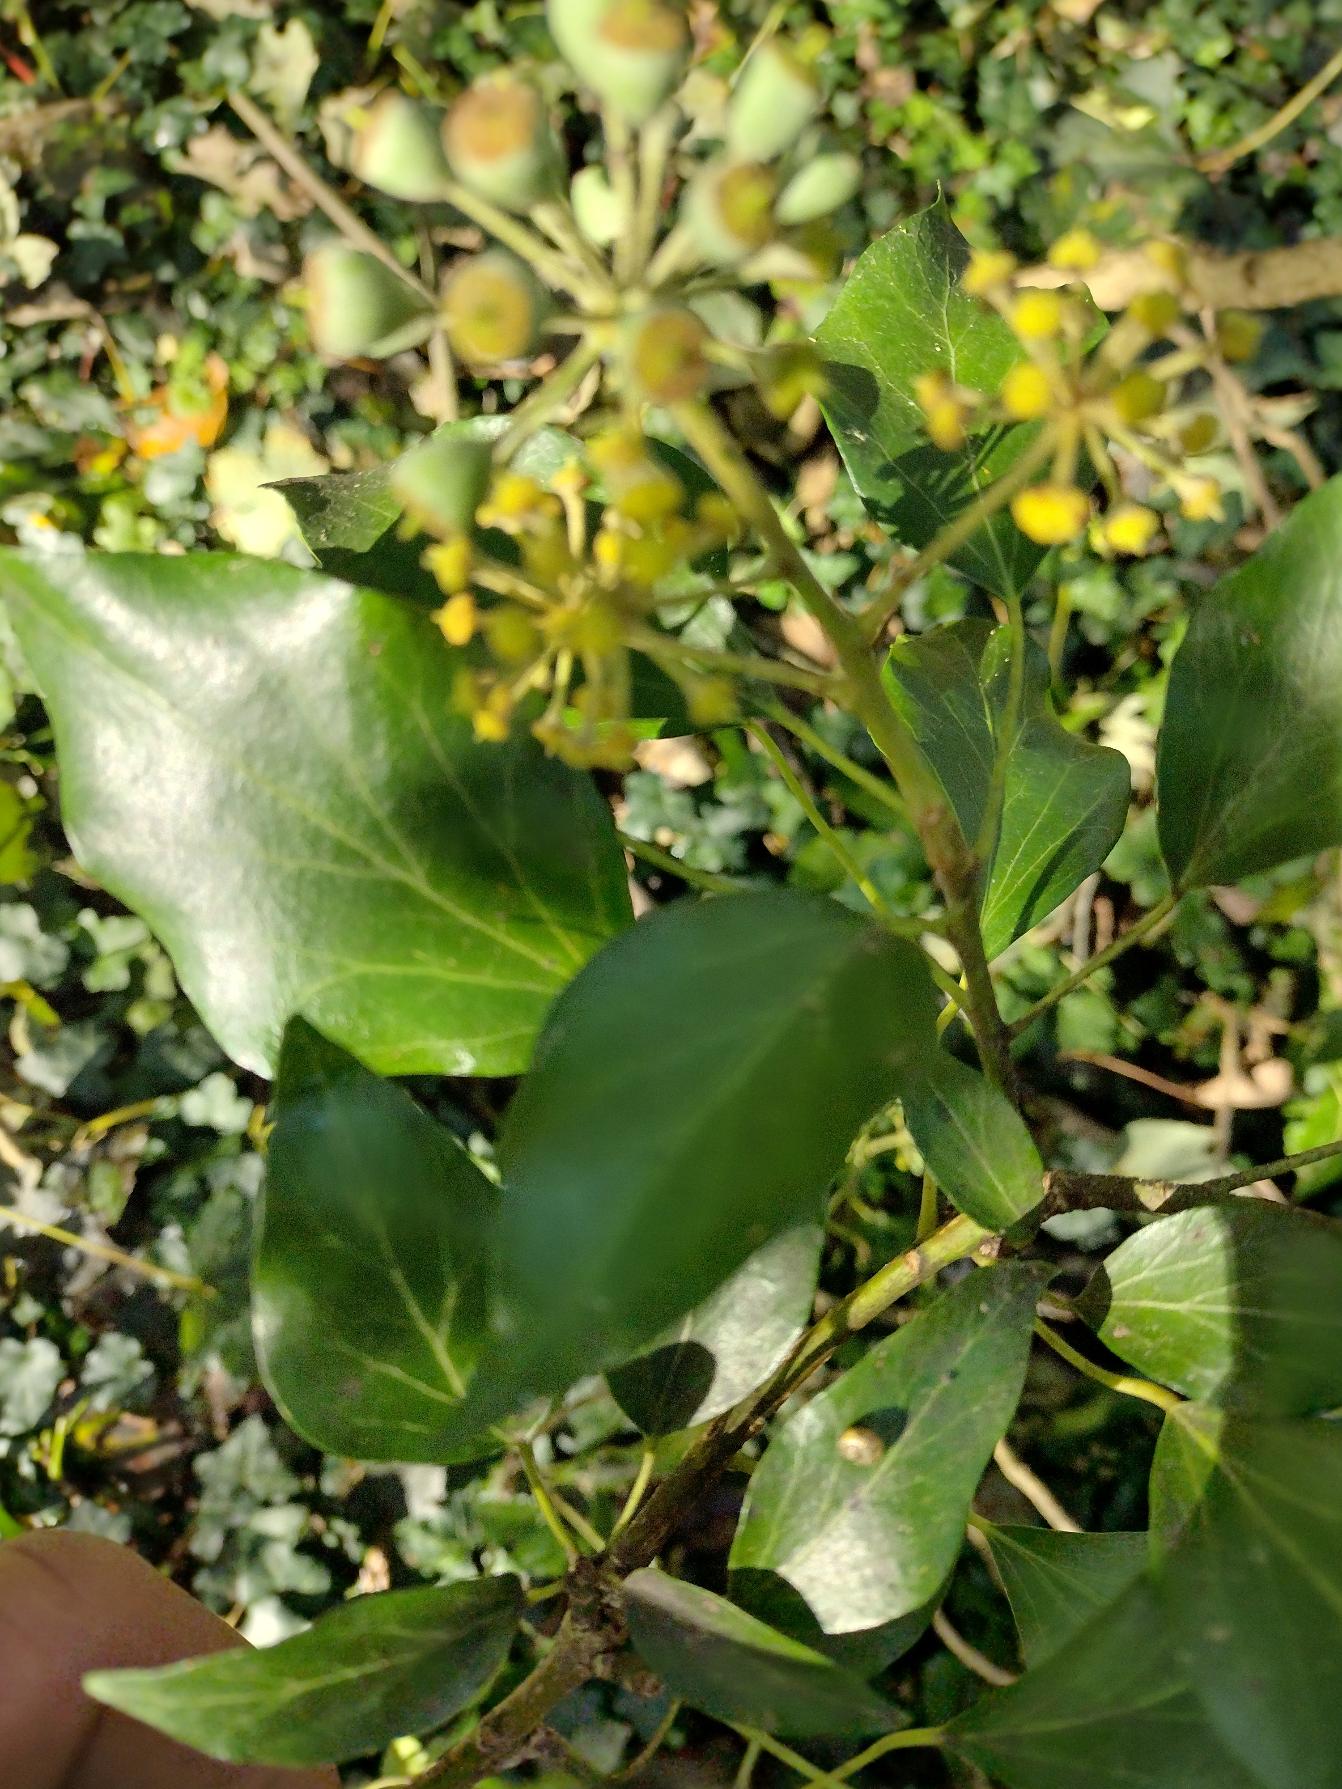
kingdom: Plantae
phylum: Tracheophyta
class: Magnoliopsida
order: Apiales
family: Araliaceae
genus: Hedera
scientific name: Hedera helix
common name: Vedbend
